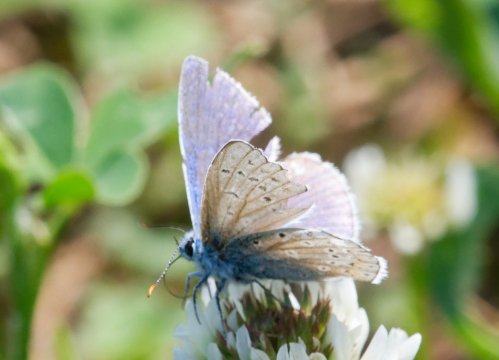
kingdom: Animalia
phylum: Arthropoda
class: Insecta
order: Lepidoptera
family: Lycaenidae
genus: Polyommatus
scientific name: Polyommatus icarus
